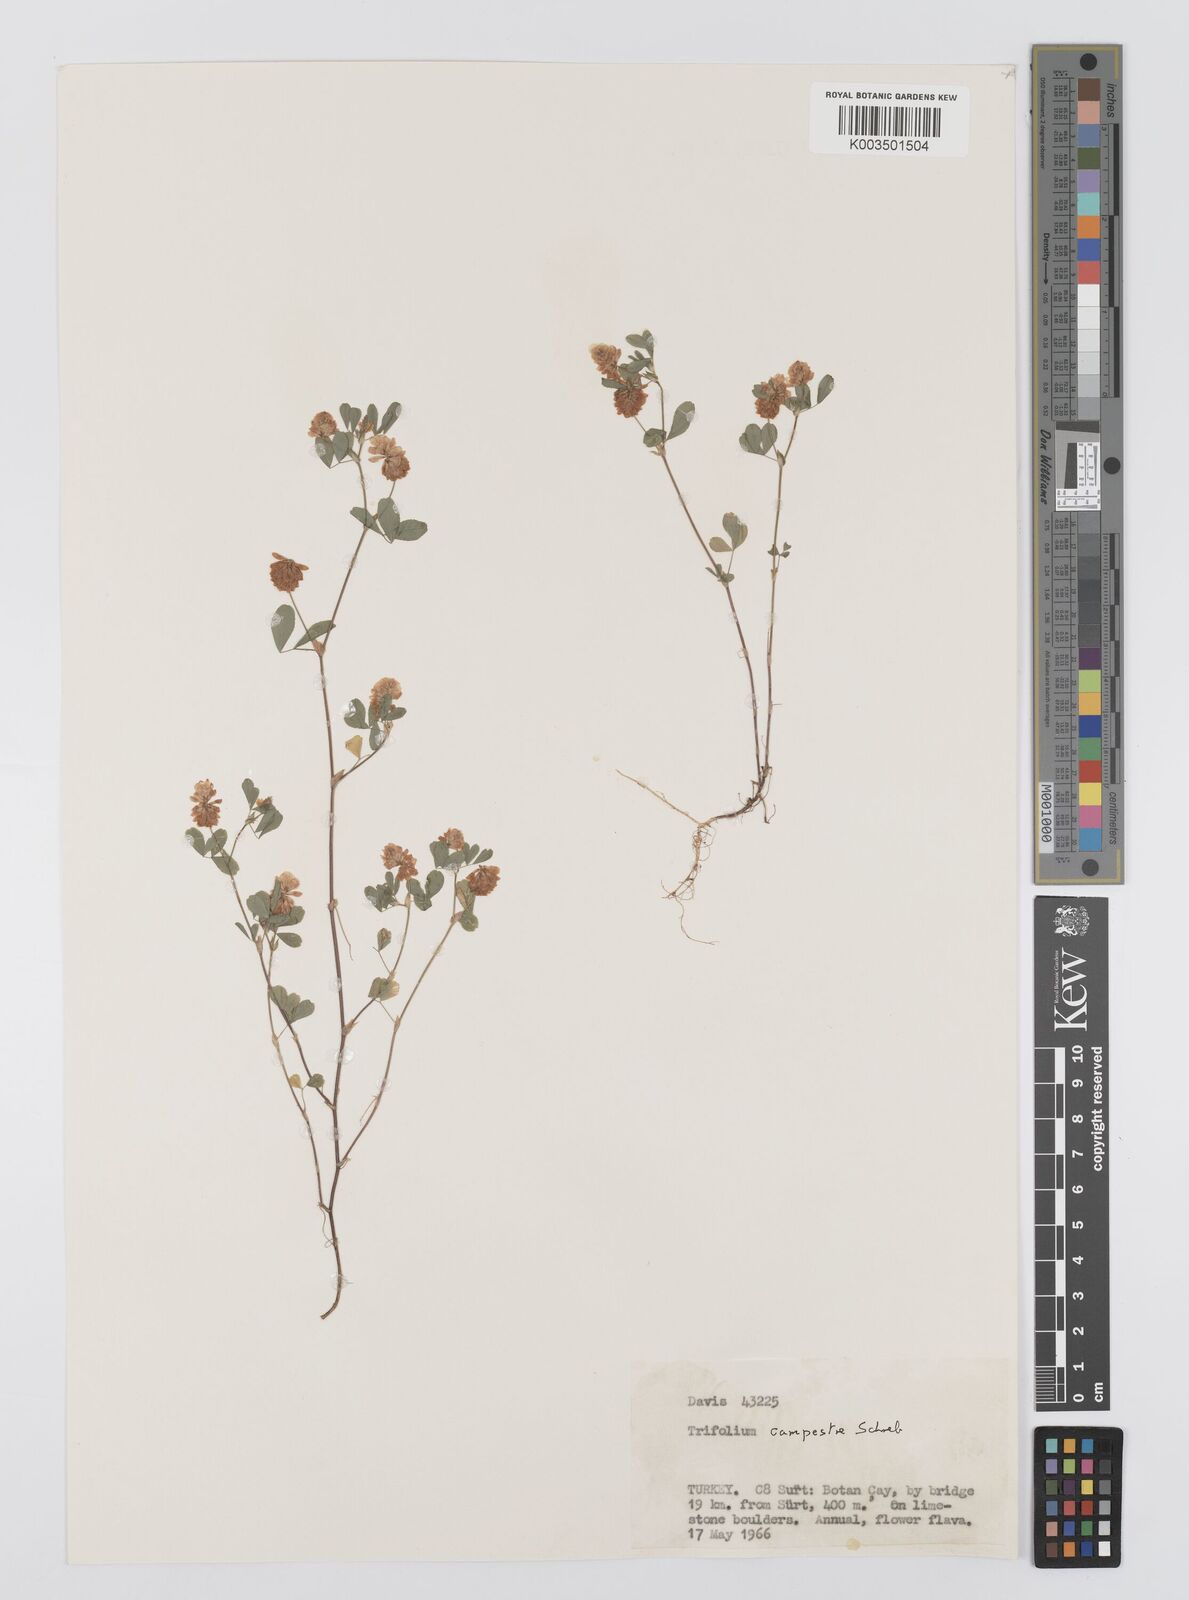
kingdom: Plantae
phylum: Tracheophyta
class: Magnoliopsida
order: Fabales
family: Fabaceae
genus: Trifolium
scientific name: Trifolium campestre
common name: Field clover
